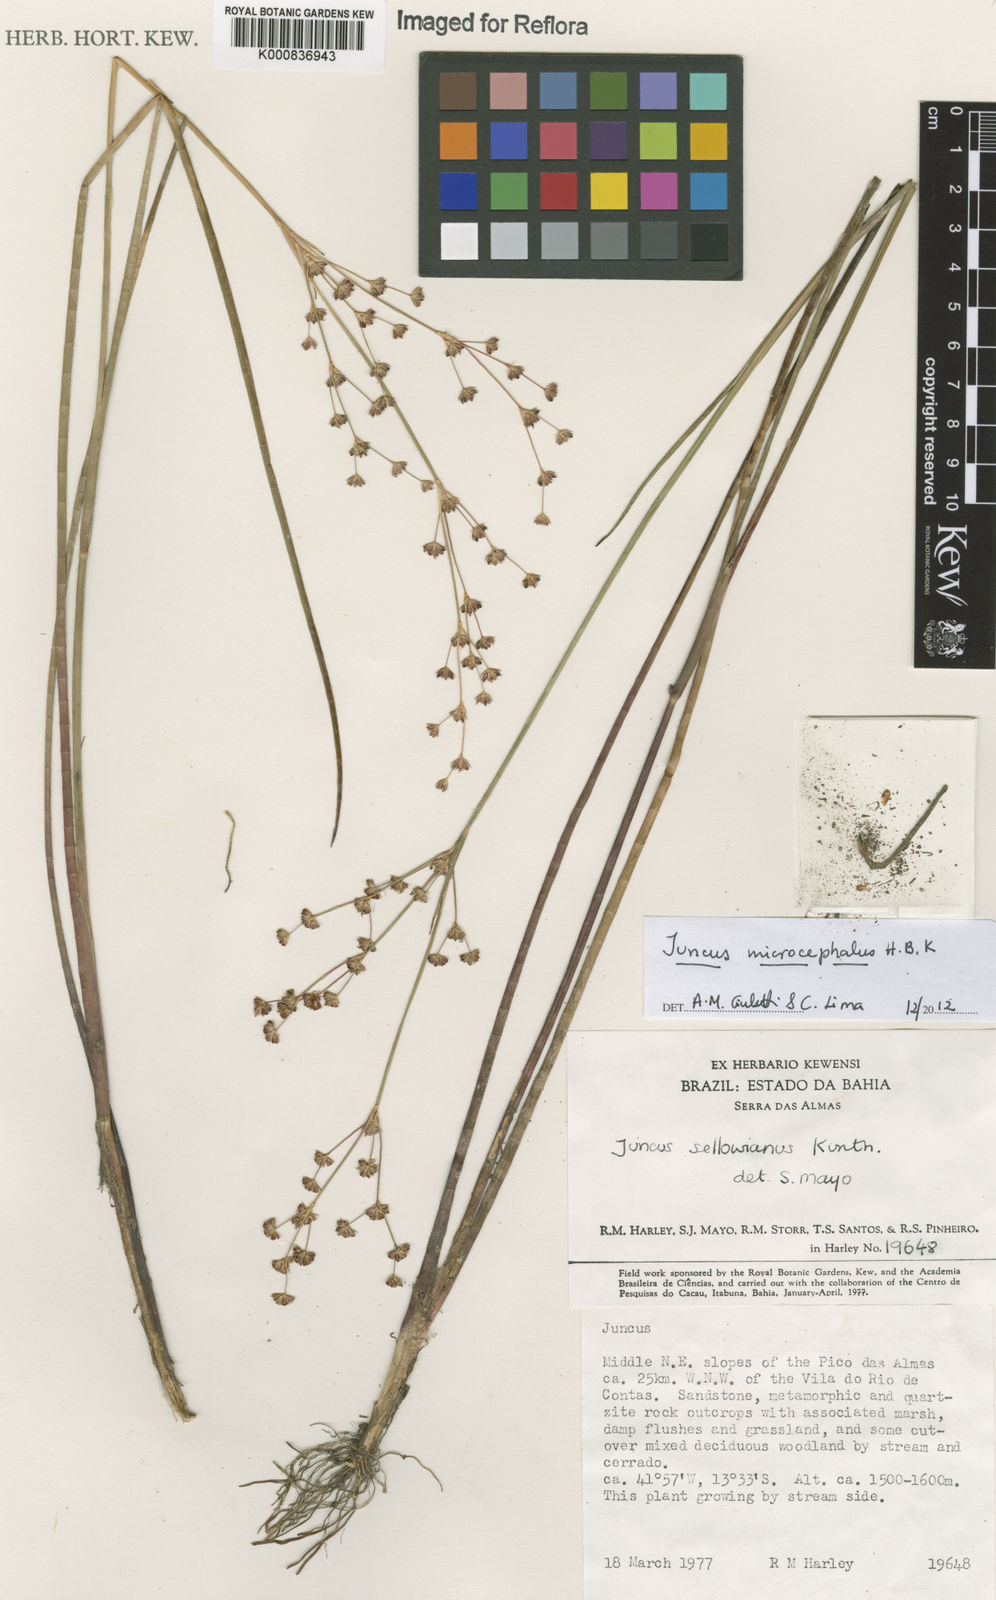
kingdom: Plantae
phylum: Tracheophyta
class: Liliopsida
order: Poales
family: Juncaceae
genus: Juncus
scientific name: Juncus microcephalus
